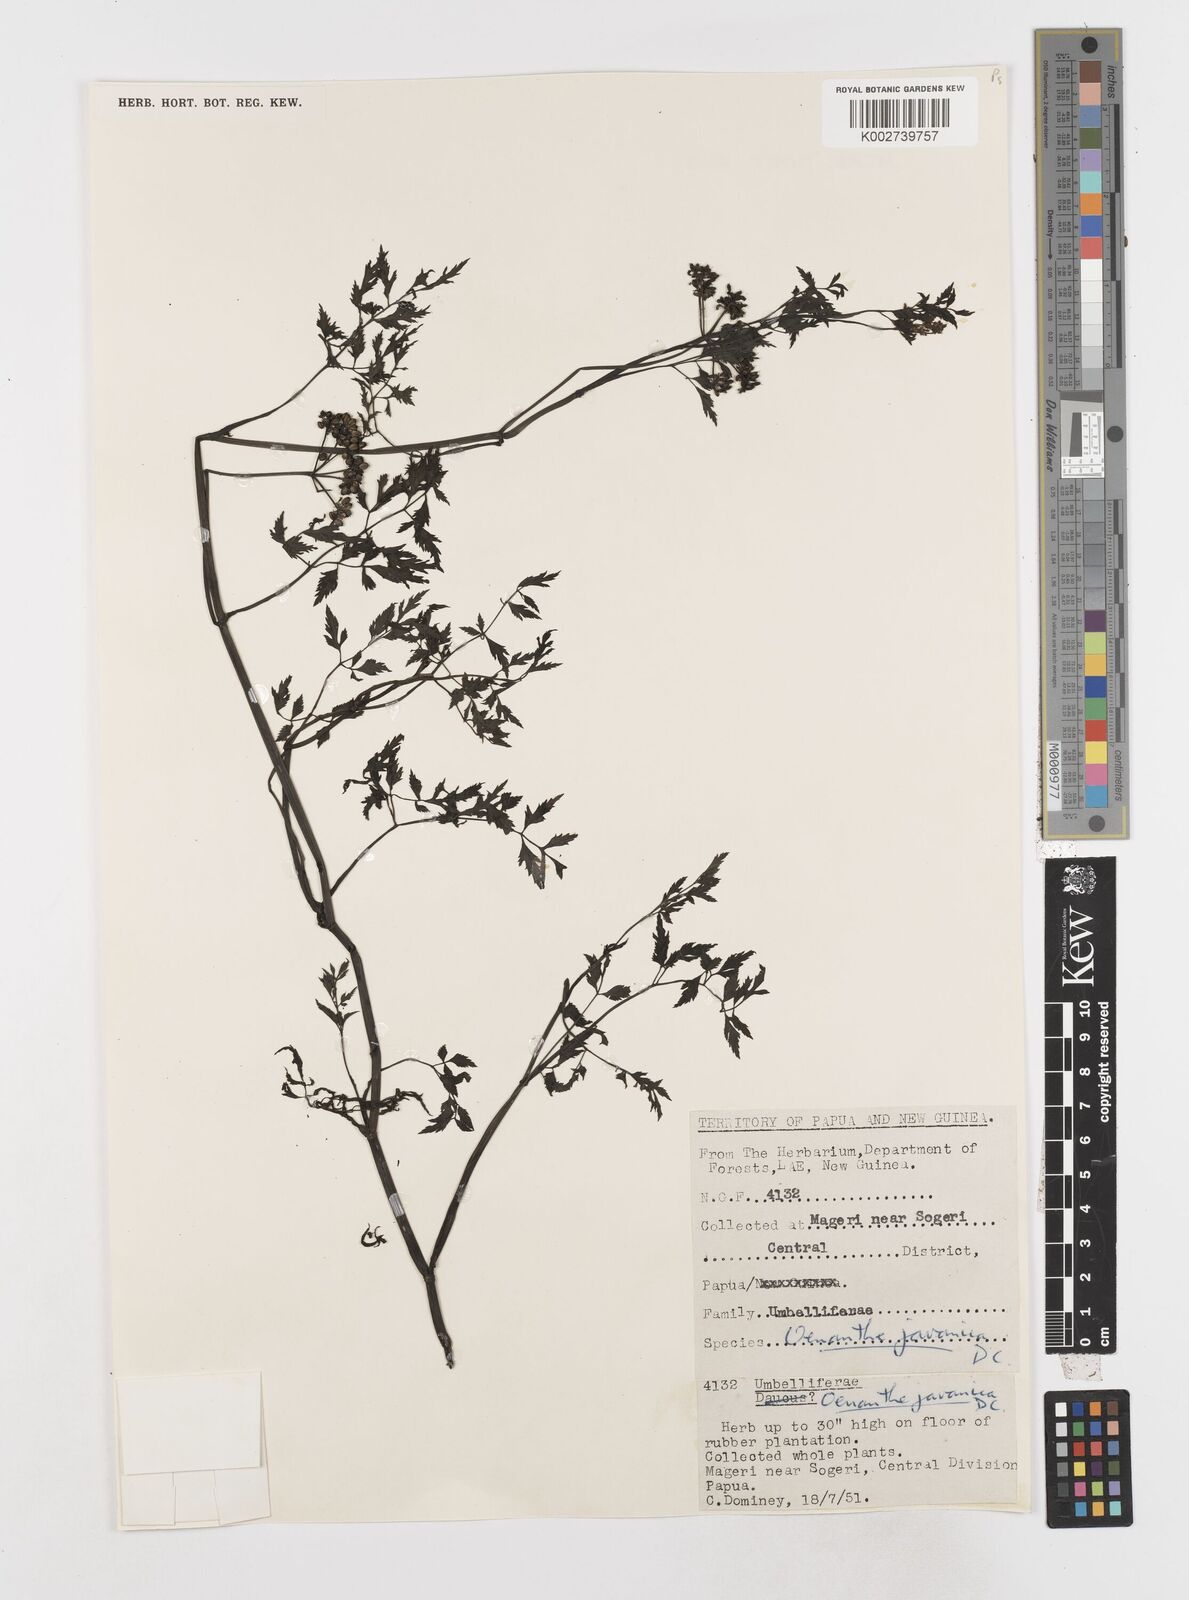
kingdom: Plantae
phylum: Tracheophyta
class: Magnoliopsida
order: Apiales
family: Apiaceae
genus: Oenanthe
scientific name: Oenanthe javanica
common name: Java water-dropwort
